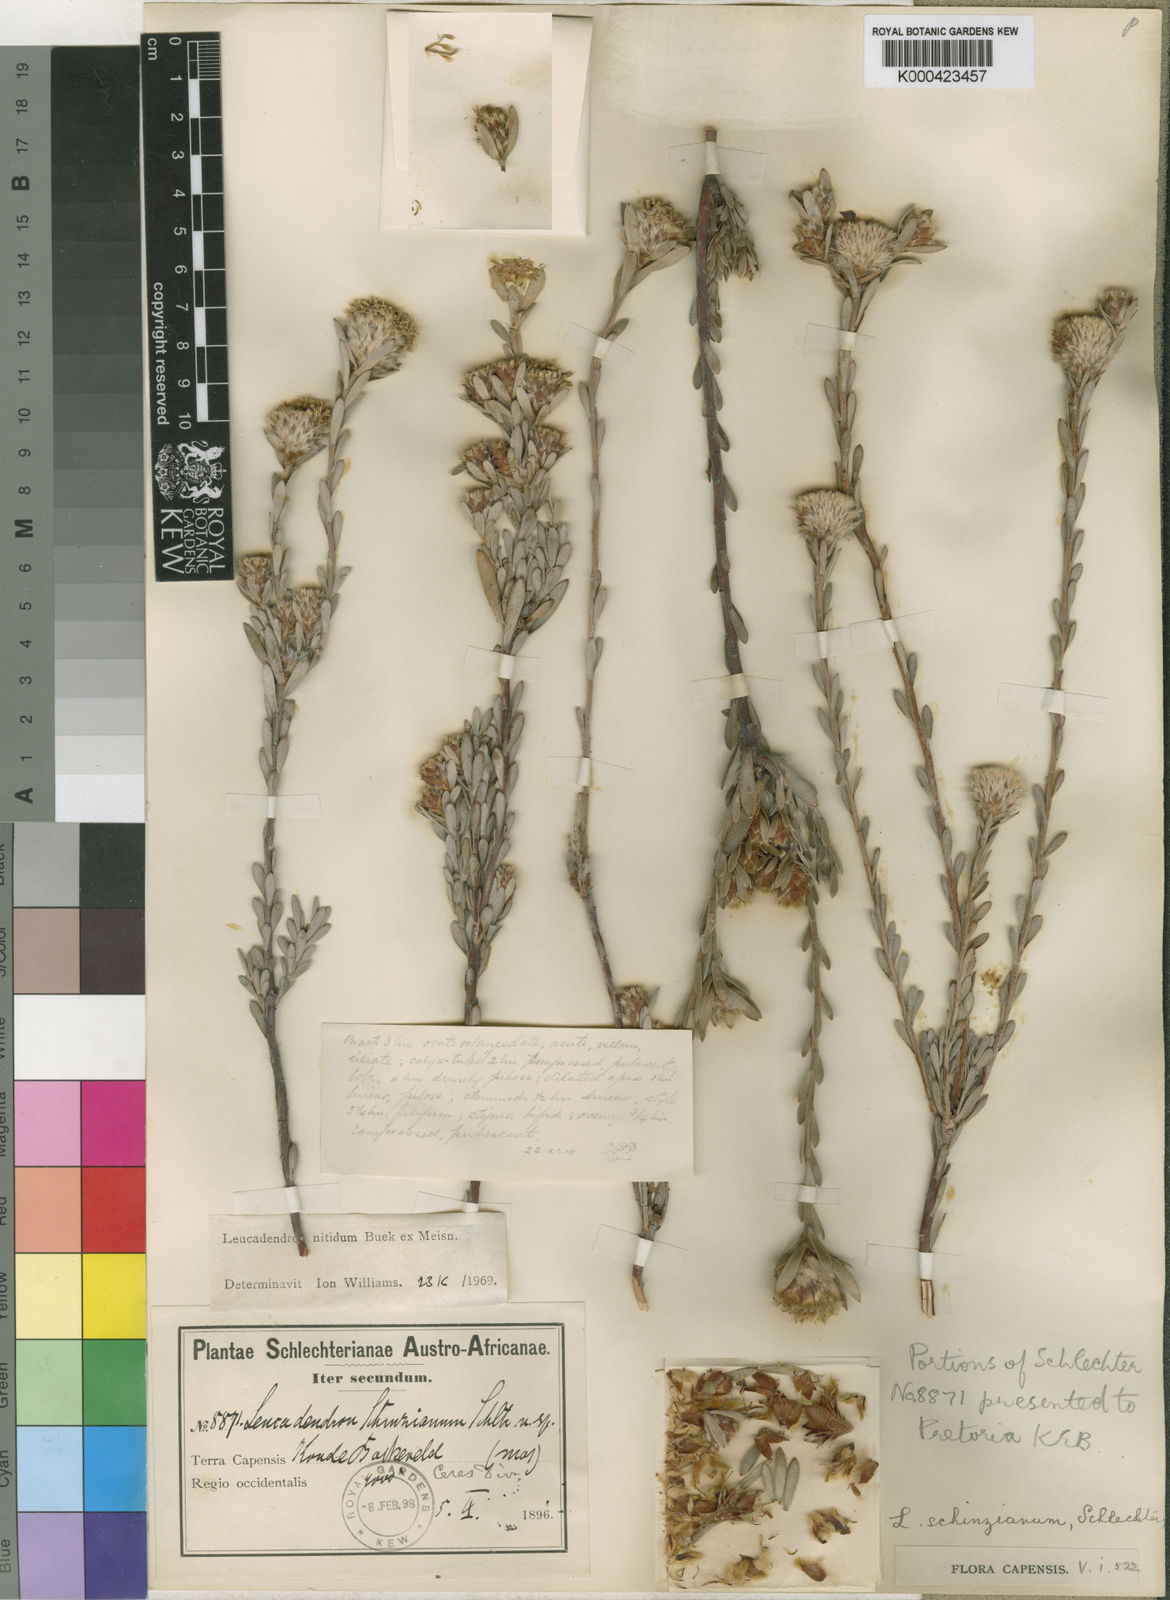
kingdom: Plantae
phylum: Tracheophyta
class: Magnoliopsida
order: Proteales
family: Proteaceae
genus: Leucadendron
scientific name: Leucadendron nitidum
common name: Bokkeveld conebush
